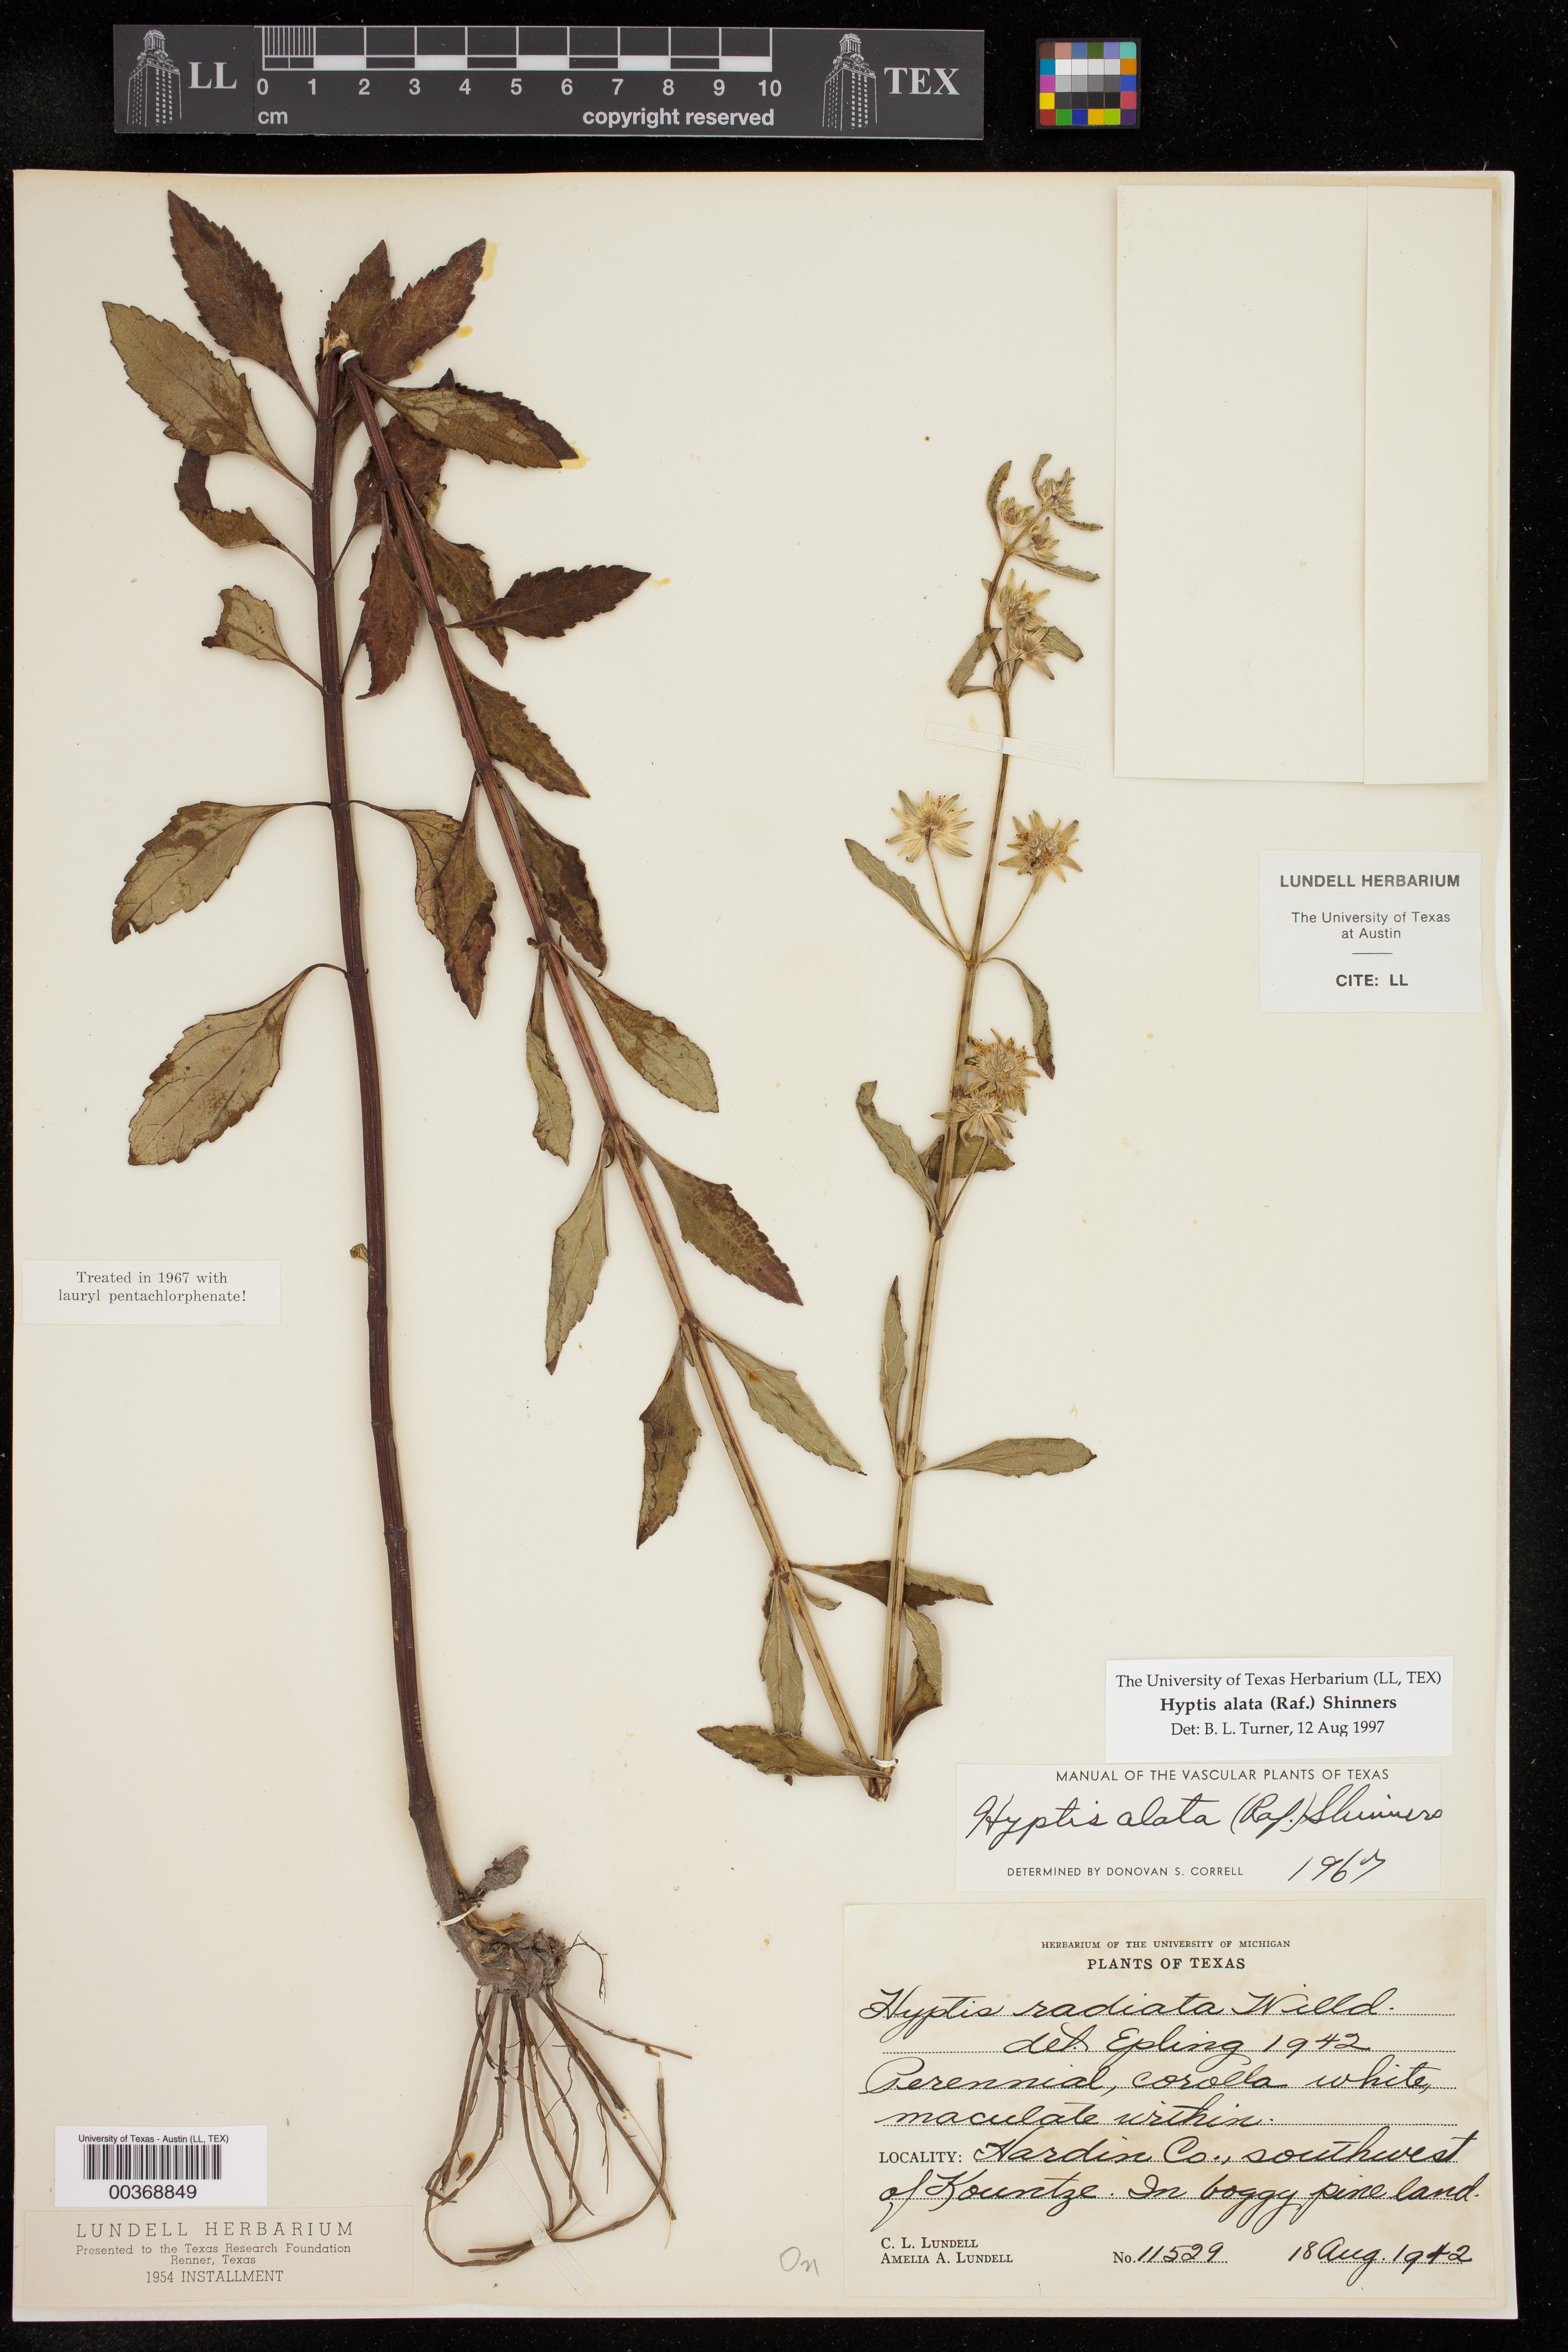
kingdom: Plantae
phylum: Tracheophyta
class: Magnoliopsida
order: Lamiales
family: Lamiaceae
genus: Hyptis
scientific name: Hyptis alata
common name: Cluster bush-mint
